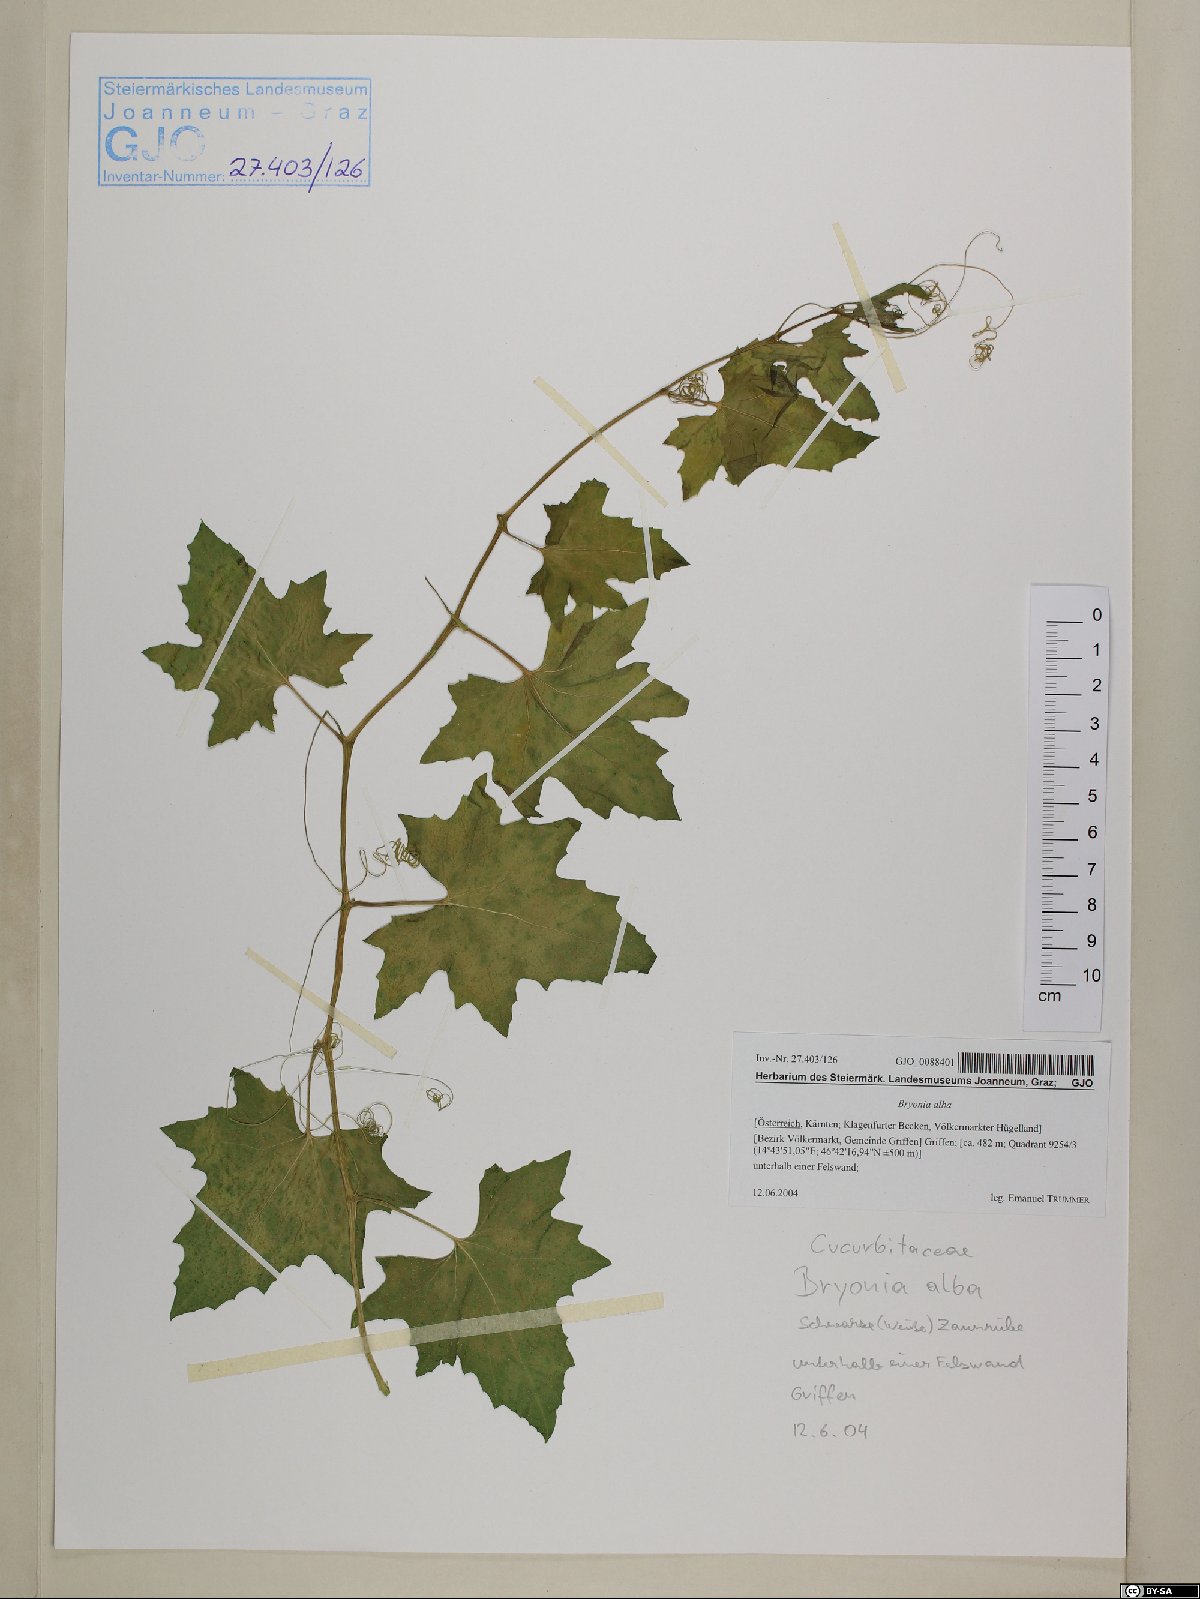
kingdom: Plantae
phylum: Tracheophyta
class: Magnoliopsida
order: Cucurbitales
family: Cucurbitaceae
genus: Bryonia
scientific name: Bryonia alba
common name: White bryony
